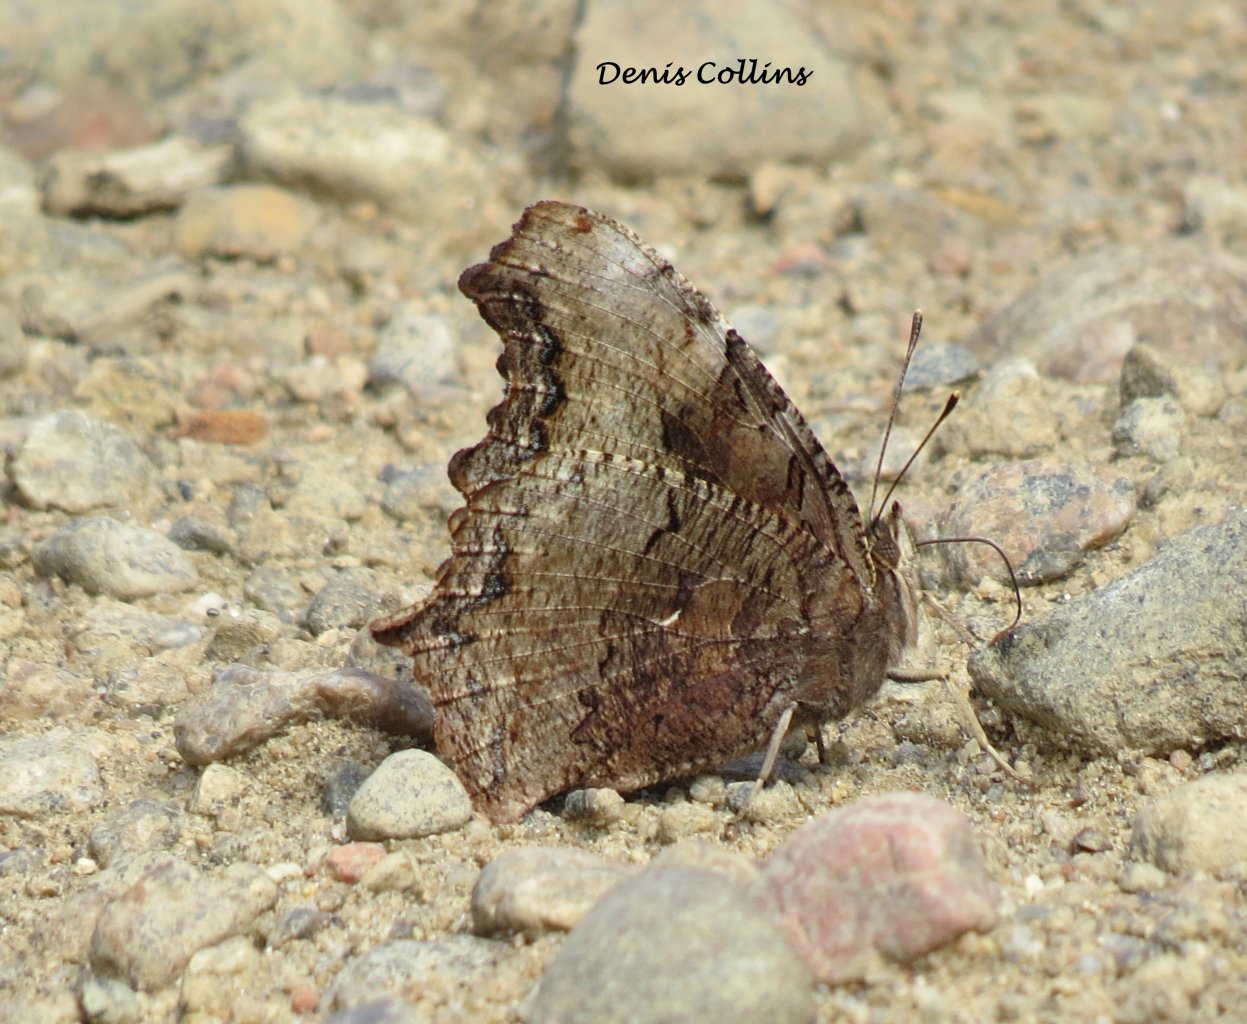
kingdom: Animalia
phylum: Arthropoda
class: Insecta
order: Lepidoptera
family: Nymphalidae
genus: Polygonia
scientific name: Polygonia vaualbum
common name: Compton Tortoiseshell
